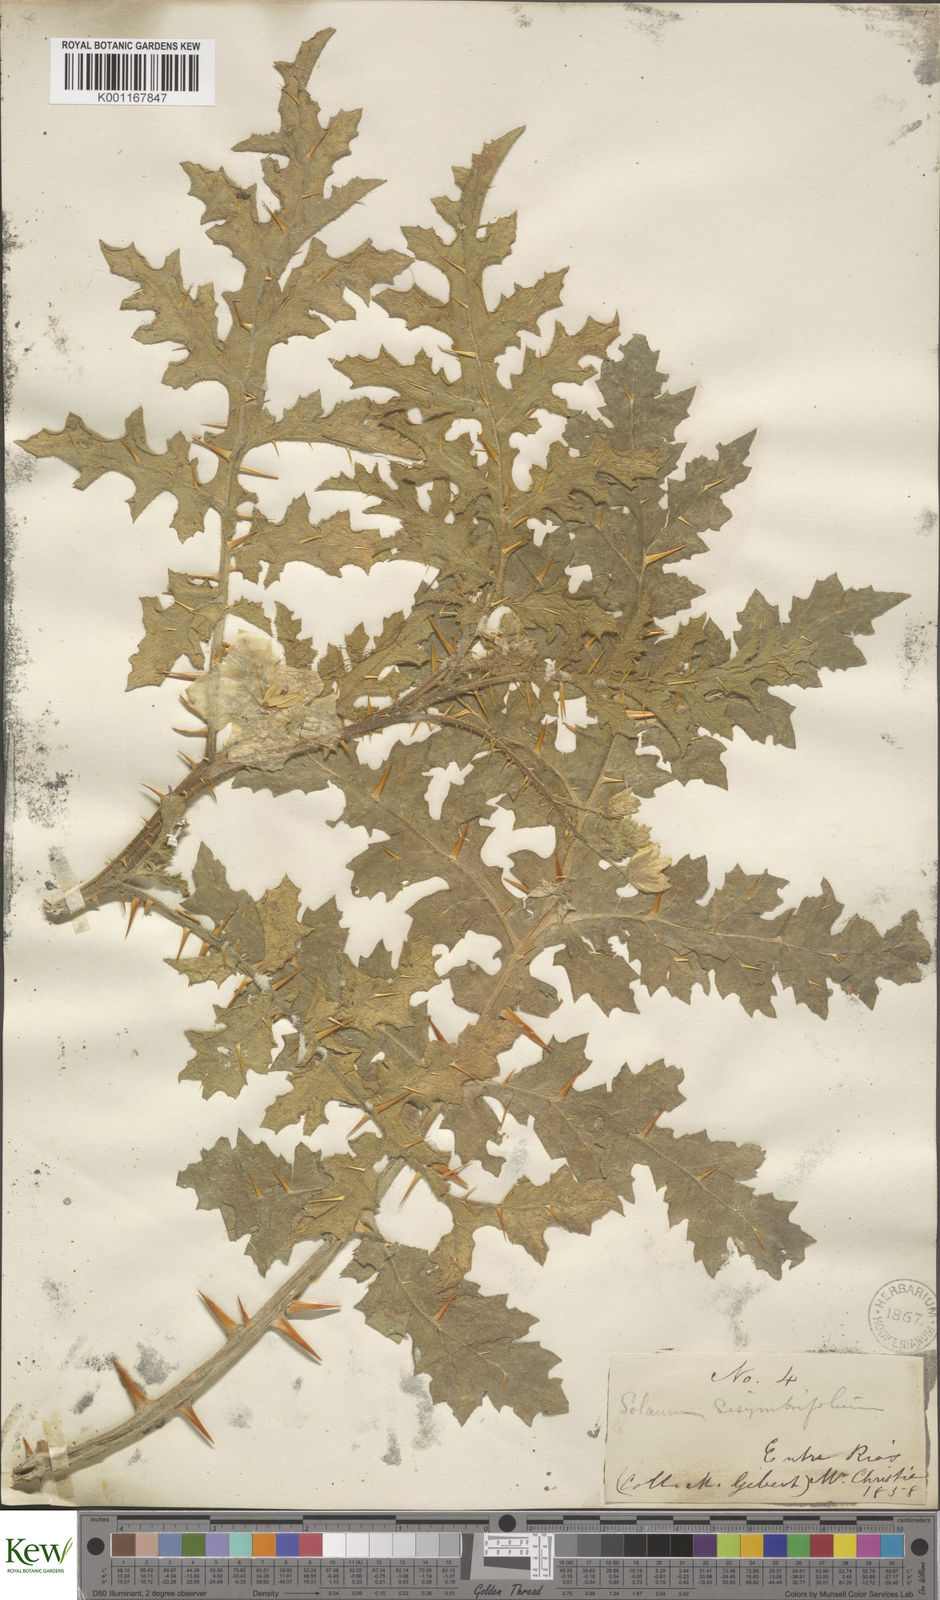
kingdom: Plantae
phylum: Tracheophyta
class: Magnoliopsida
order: Solanales
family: Solanaceae
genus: Solanum
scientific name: Solanum sisymbriifolium
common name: Red buffalo-bur
